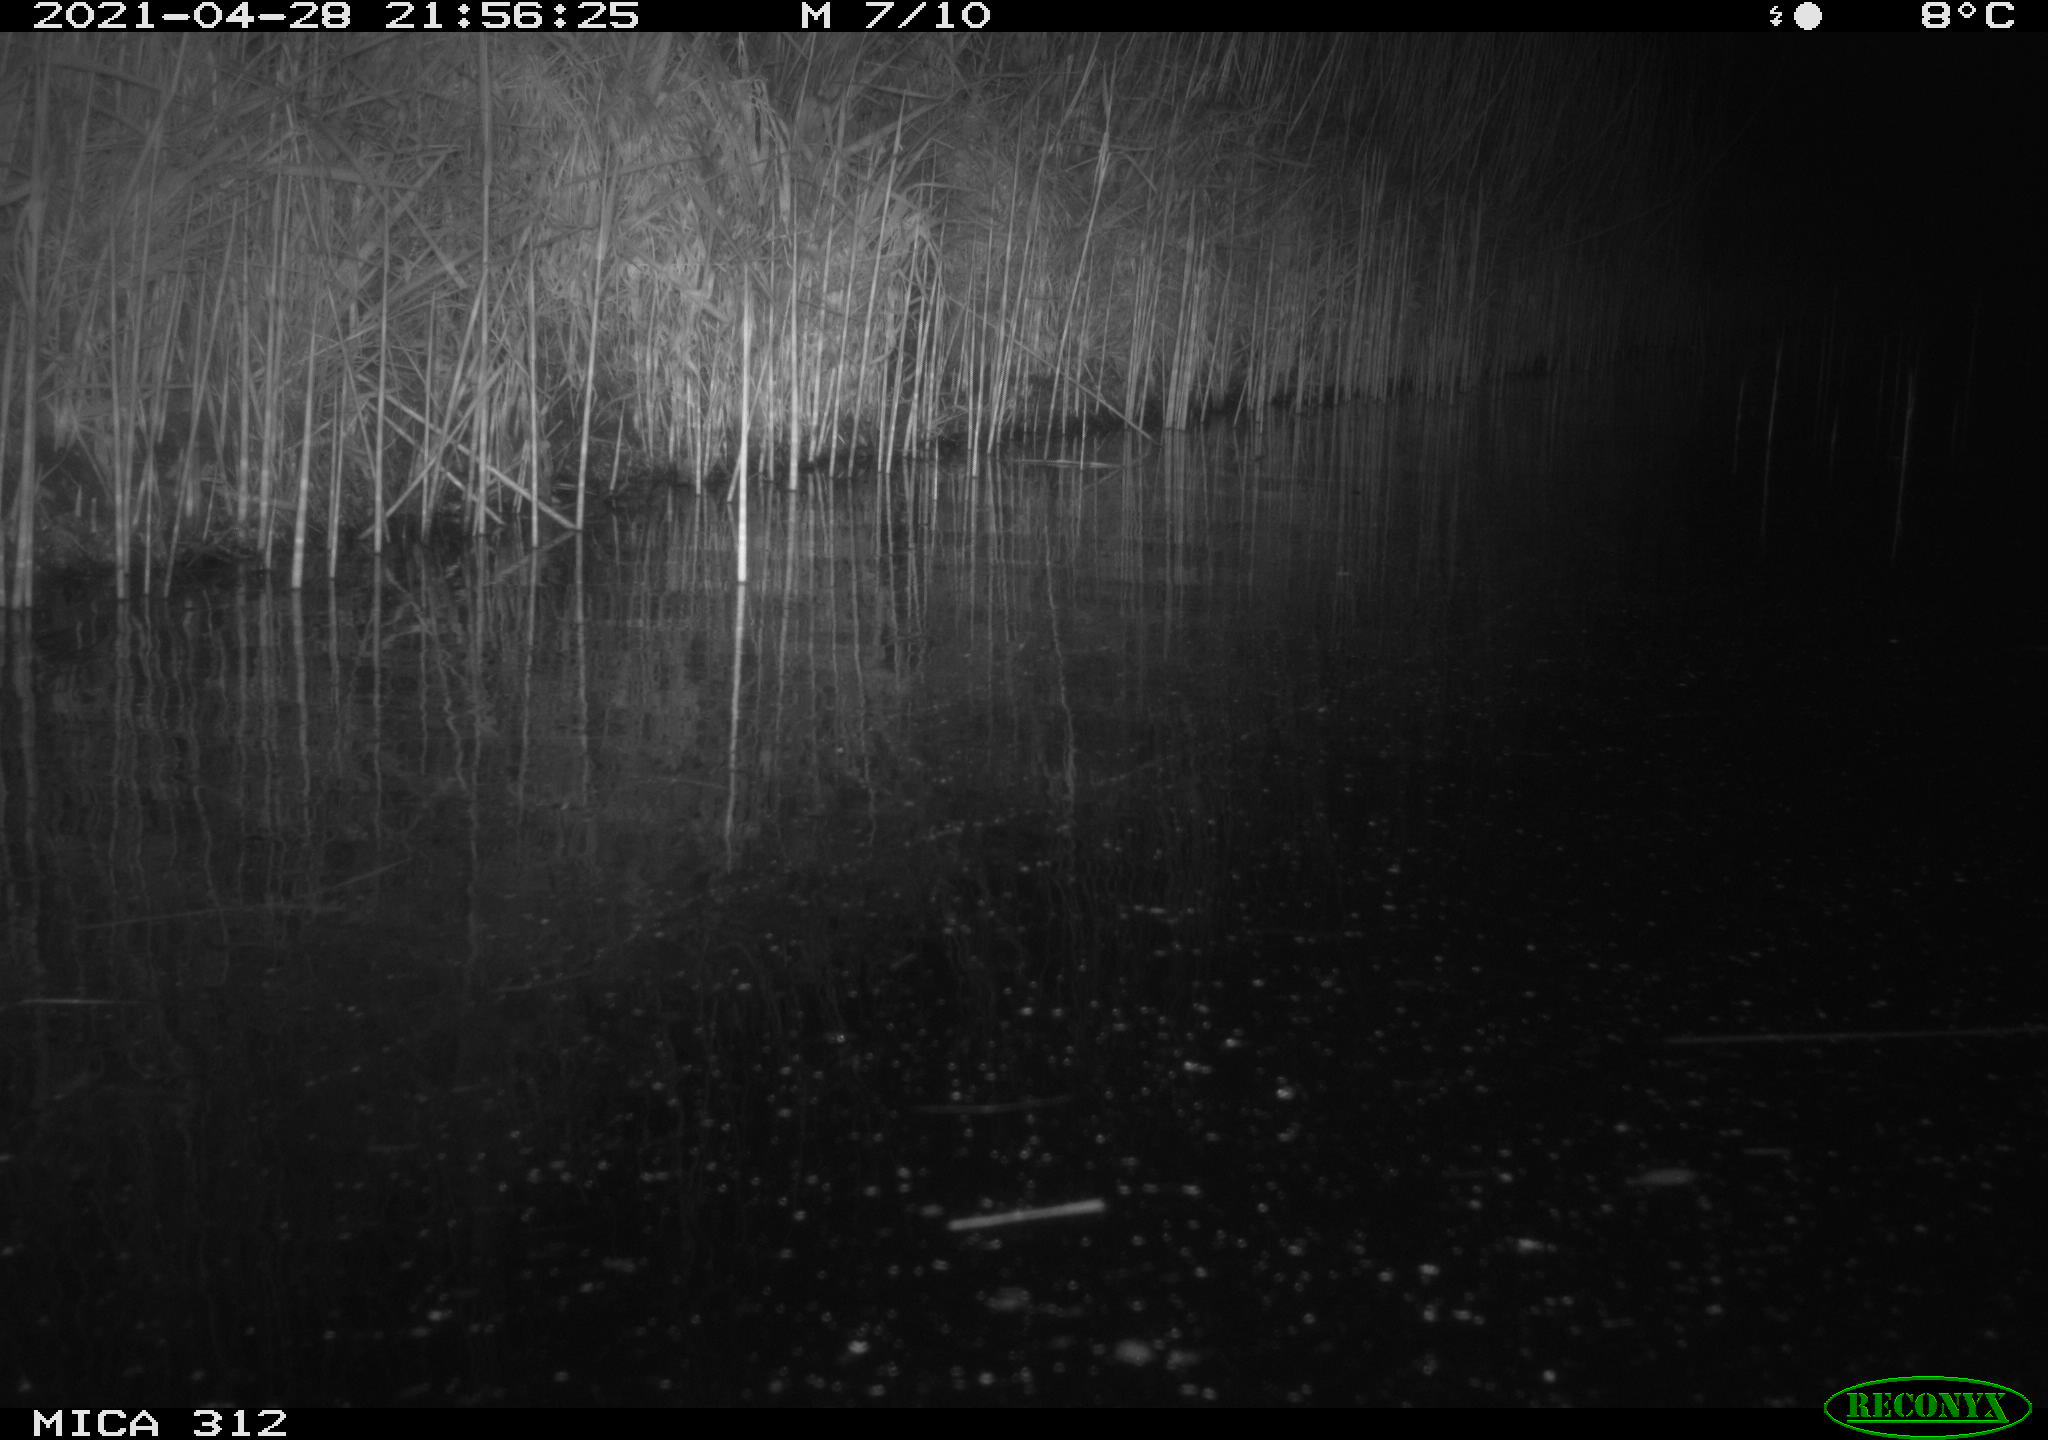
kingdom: Animalia
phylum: Chordata
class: Mammalia
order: Rodentia
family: Muridae
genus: Rattus
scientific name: Rattus norvegicus
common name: Brown rat
